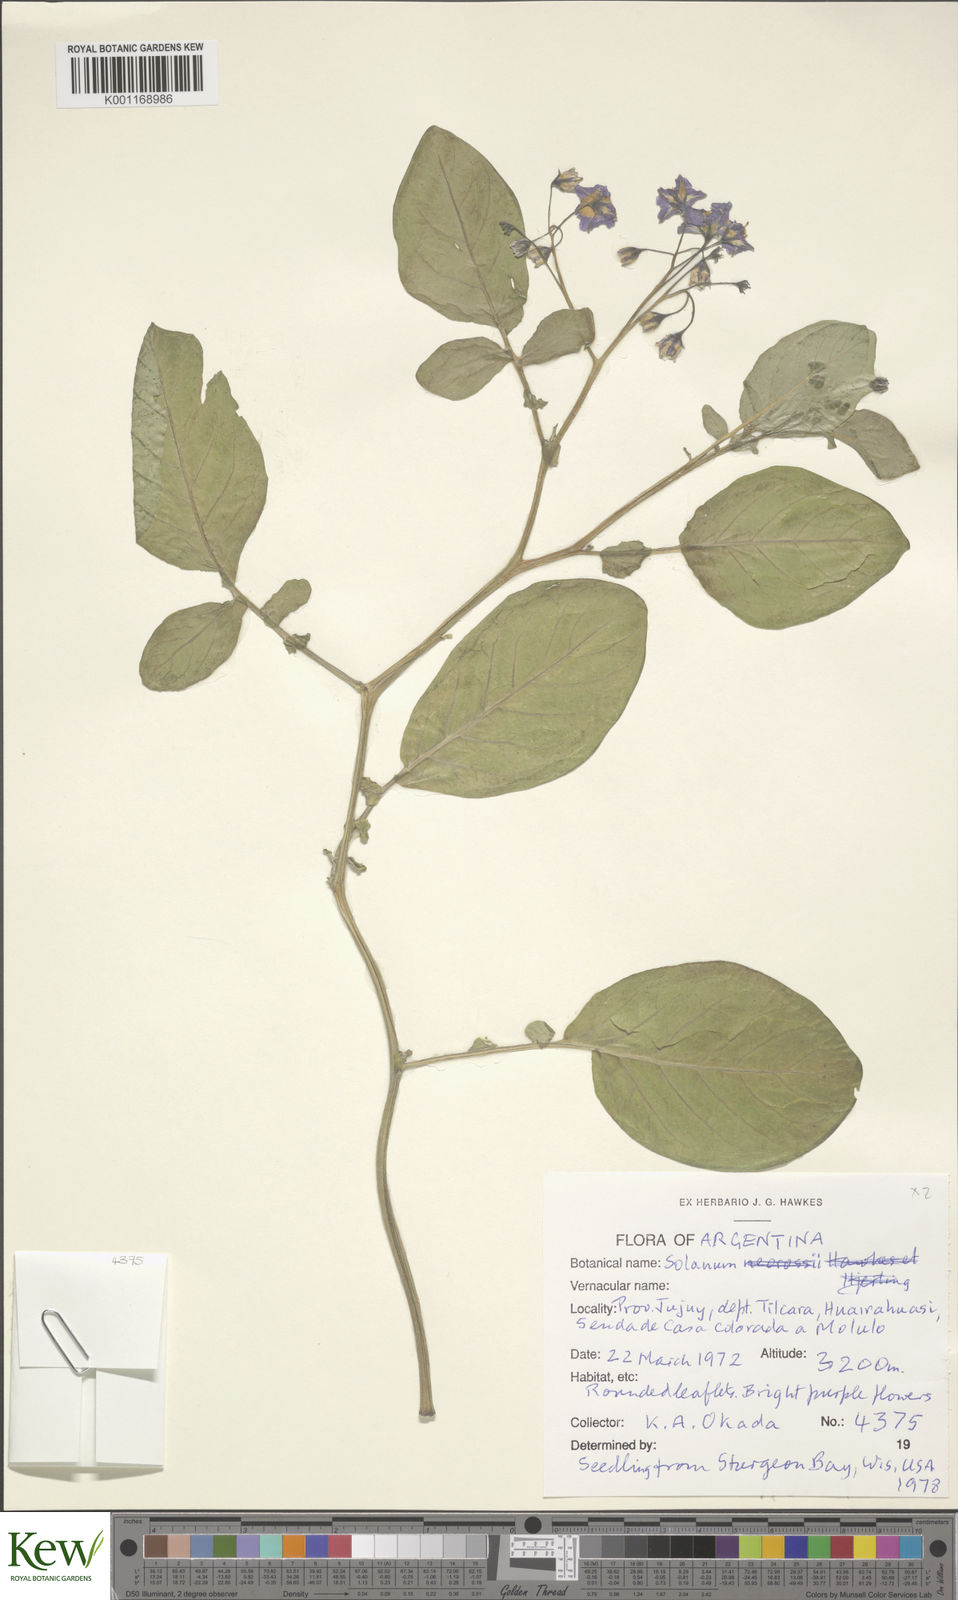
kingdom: Plantae
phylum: Tracheophyta
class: Magnoliopsida
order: Solanales
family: Solanaceae
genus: Solanum
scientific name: Solanum brevicaule
